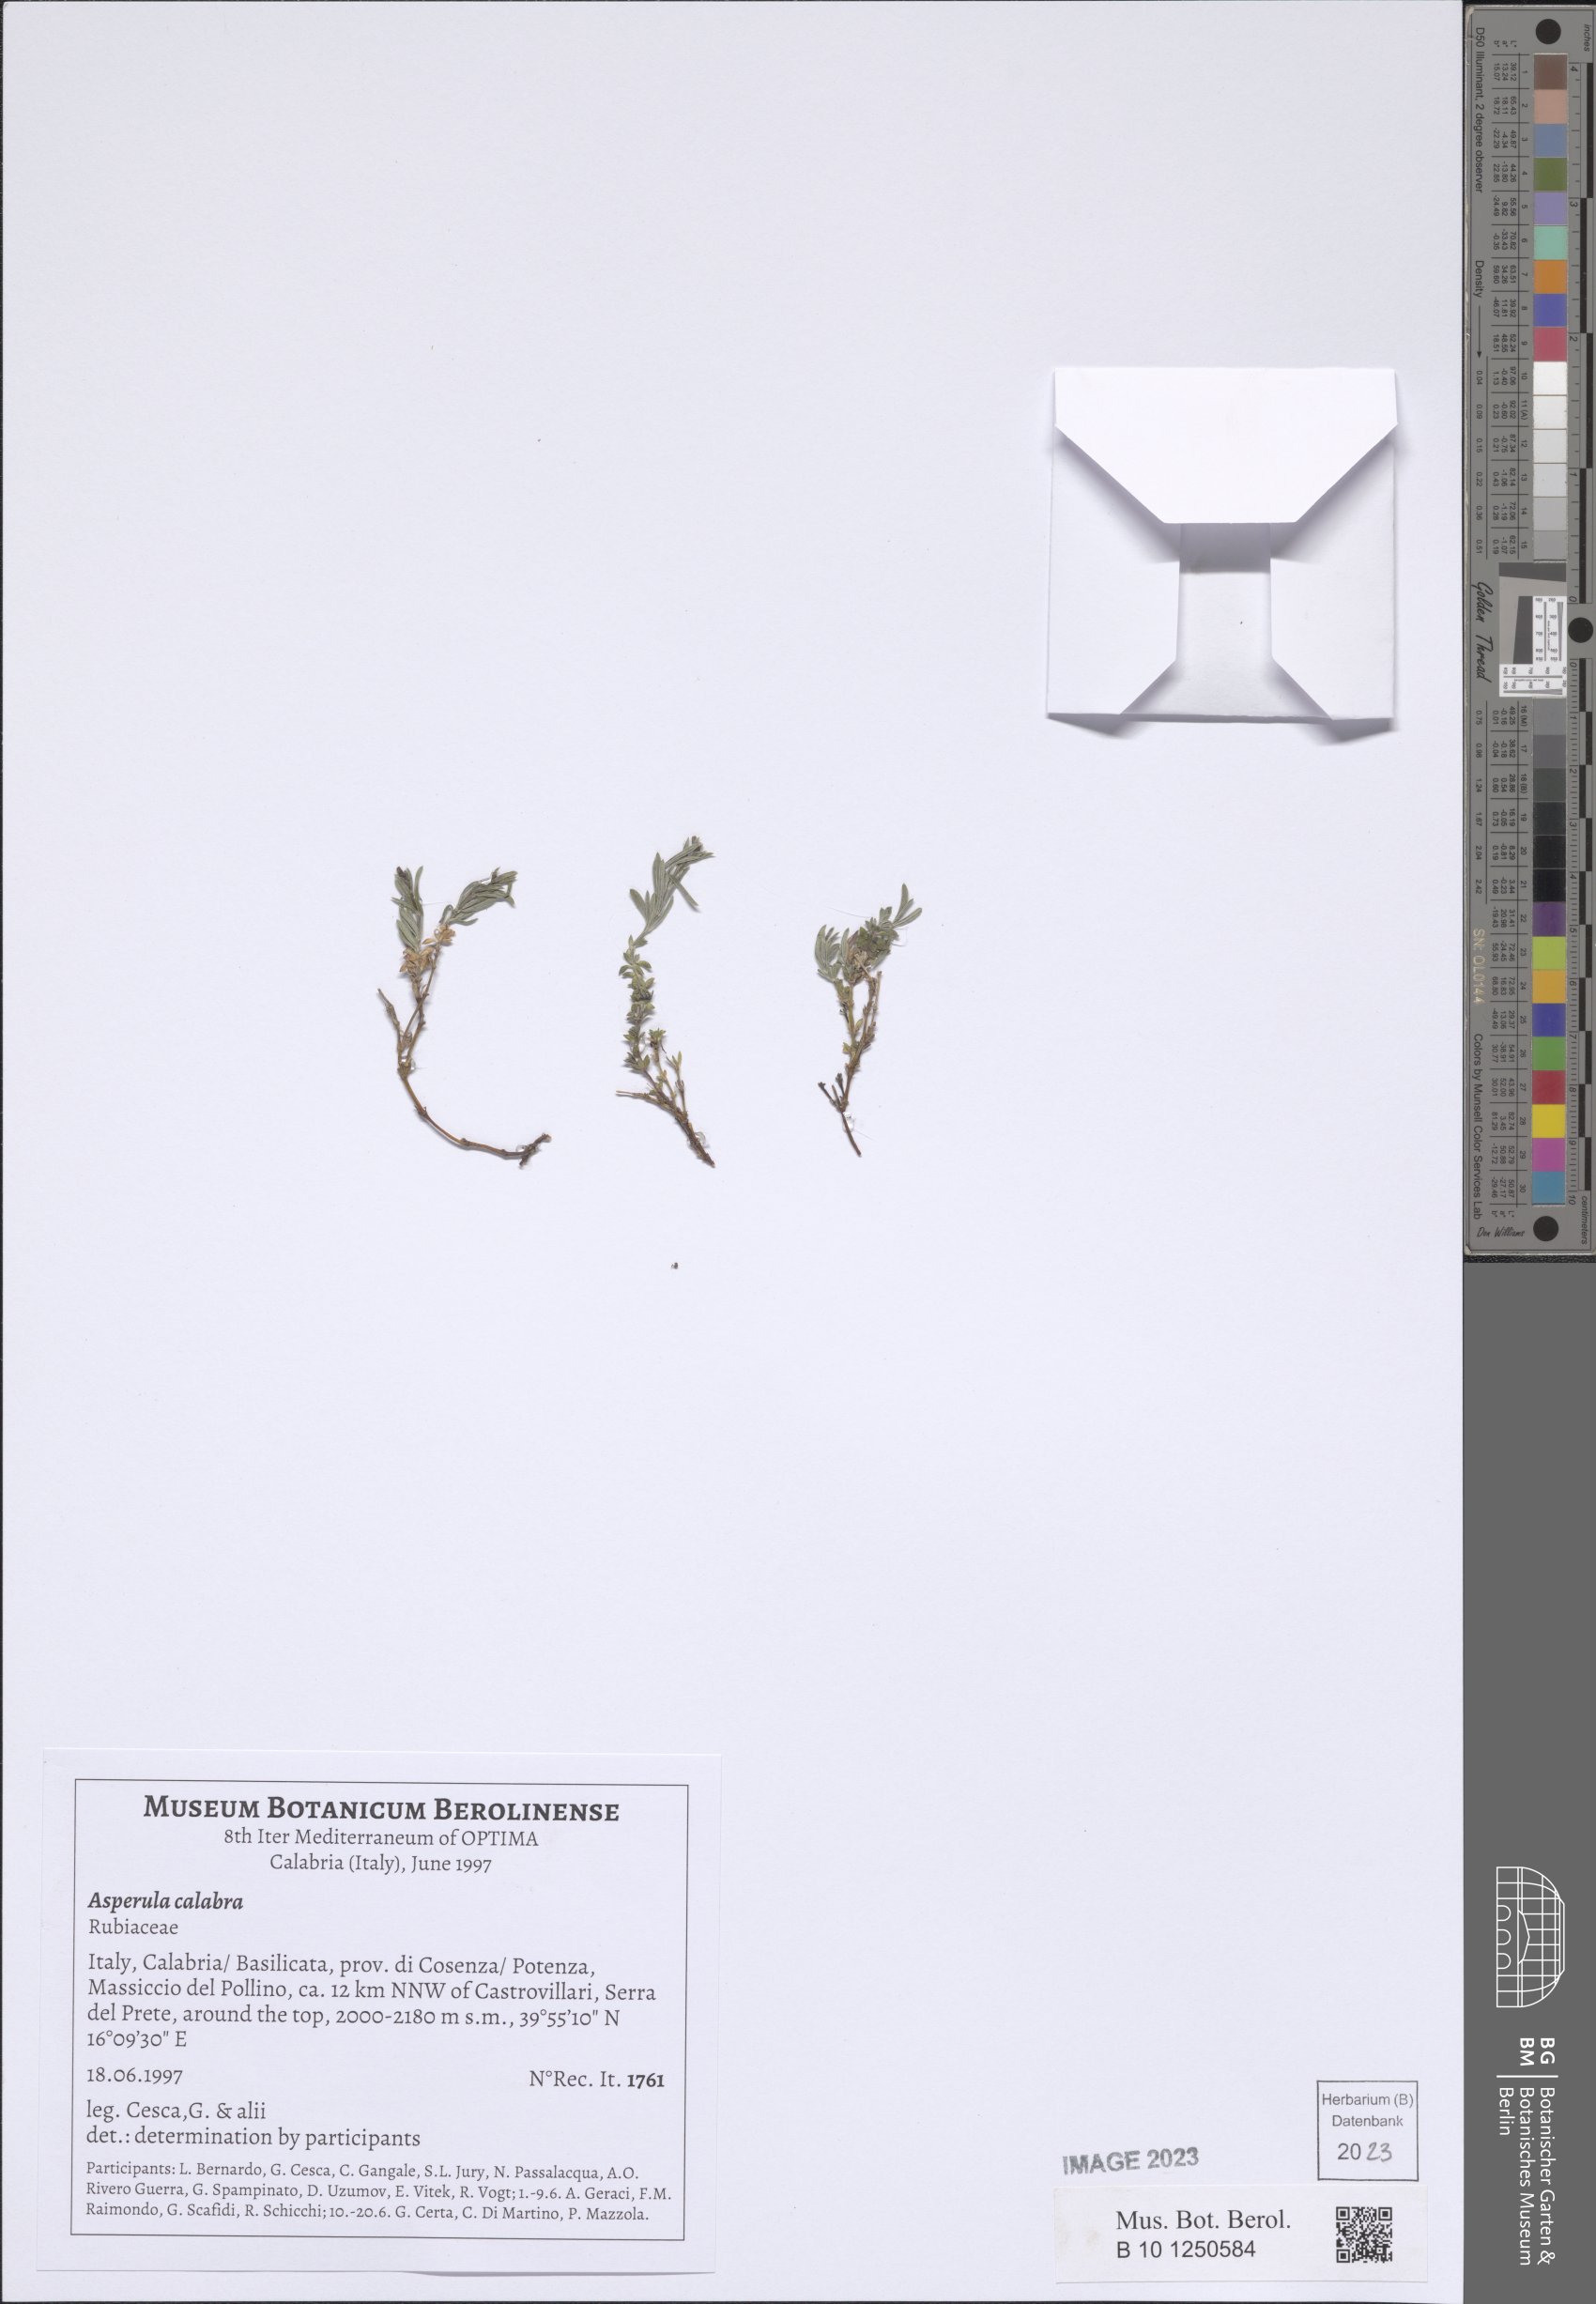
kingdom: Plantae
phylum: Tracheophyta
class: Magnoliopsida
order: Gentianales
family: Rubiaceae
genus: Cynanchica
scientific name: Cynanchica aristata
